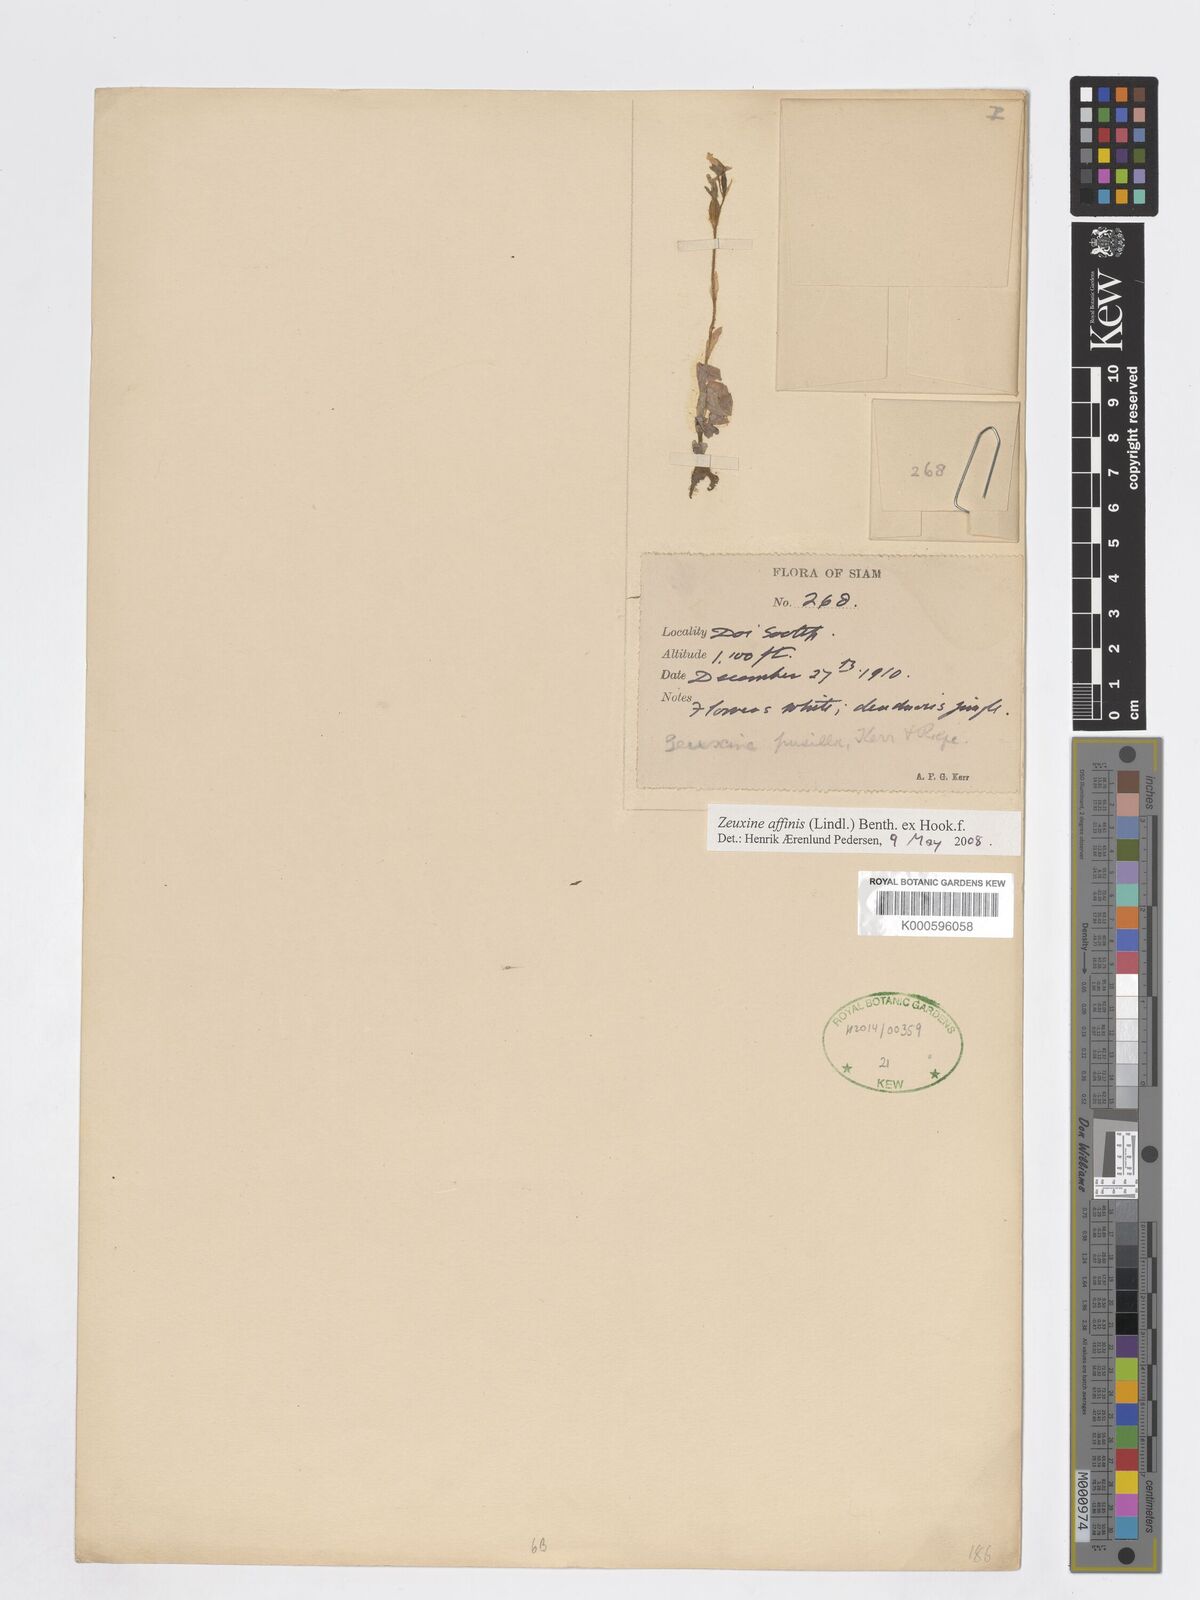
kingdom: Plantae
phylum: Tracheophyta
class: Liliopsida
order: Asparagales
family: Orchidaceae
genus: Zeuxine
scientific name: Zeuxine affinis
